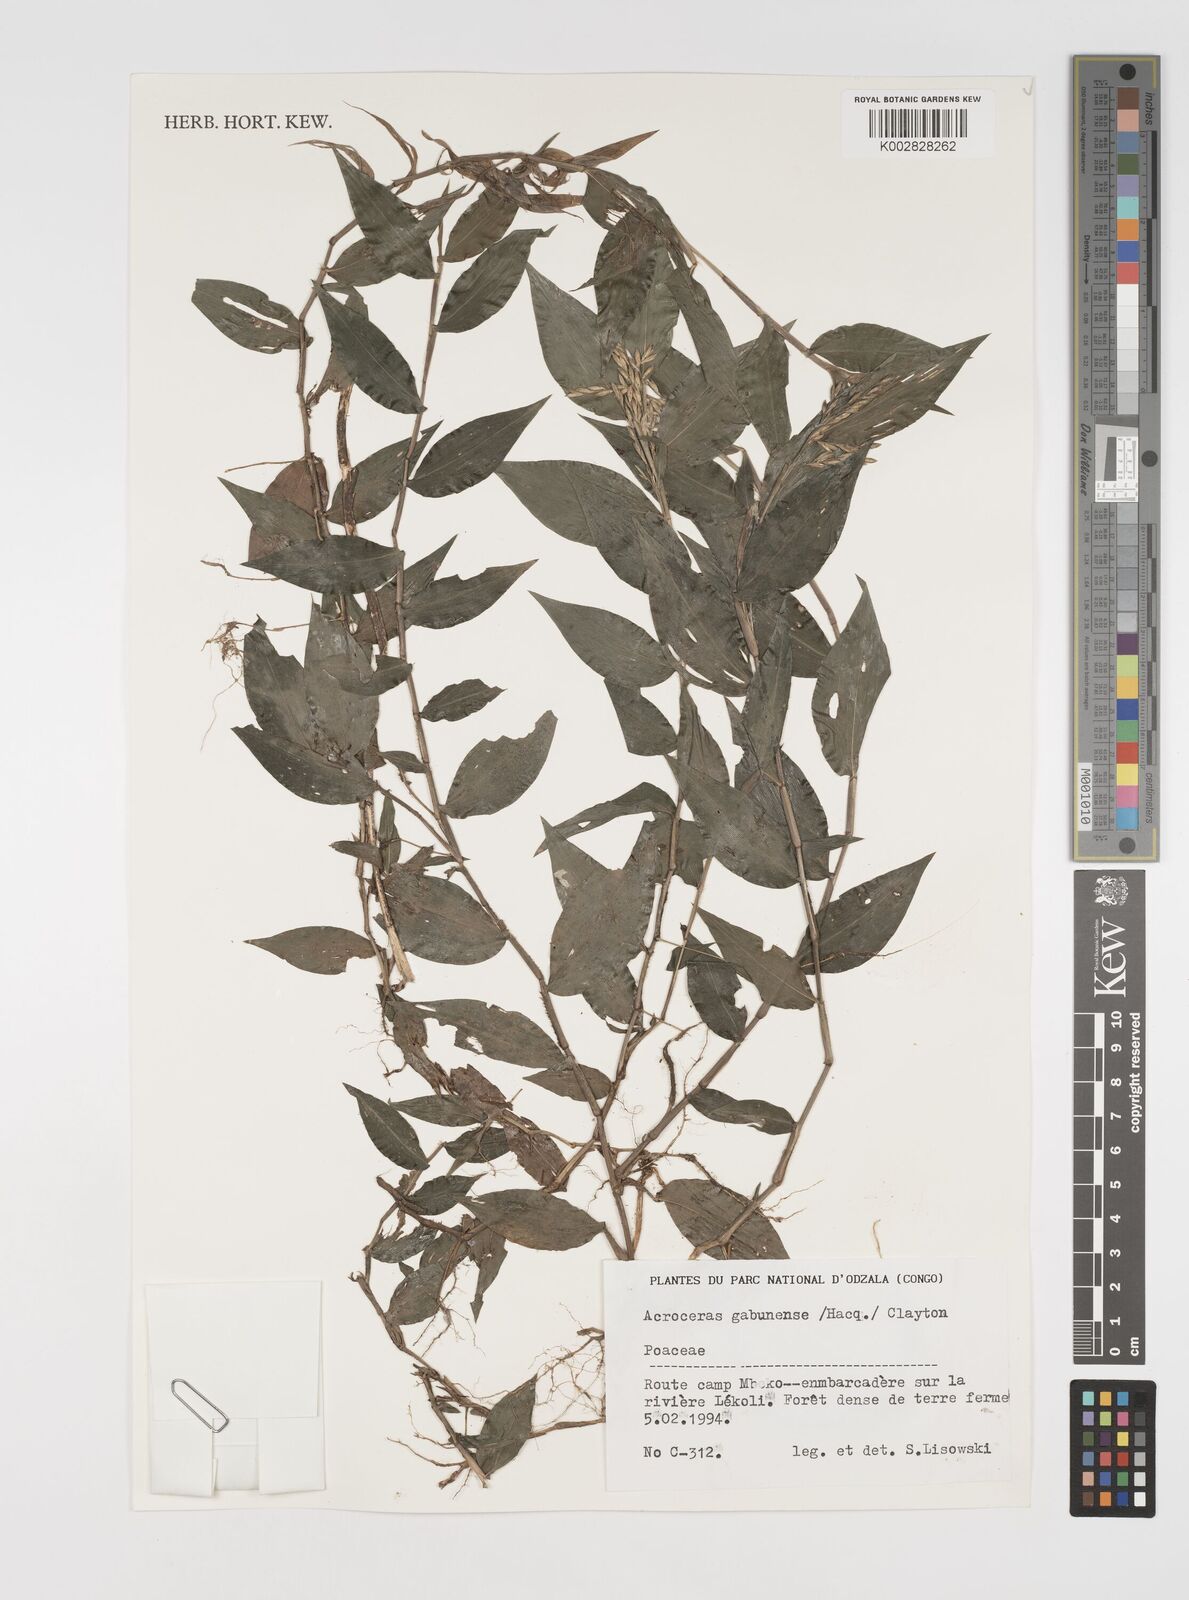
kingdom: Plantae
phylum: Tracheophyta
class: Liliopsida
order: Poales
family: Poaceae
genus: Acroceras
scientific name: Acroceras gabunense
